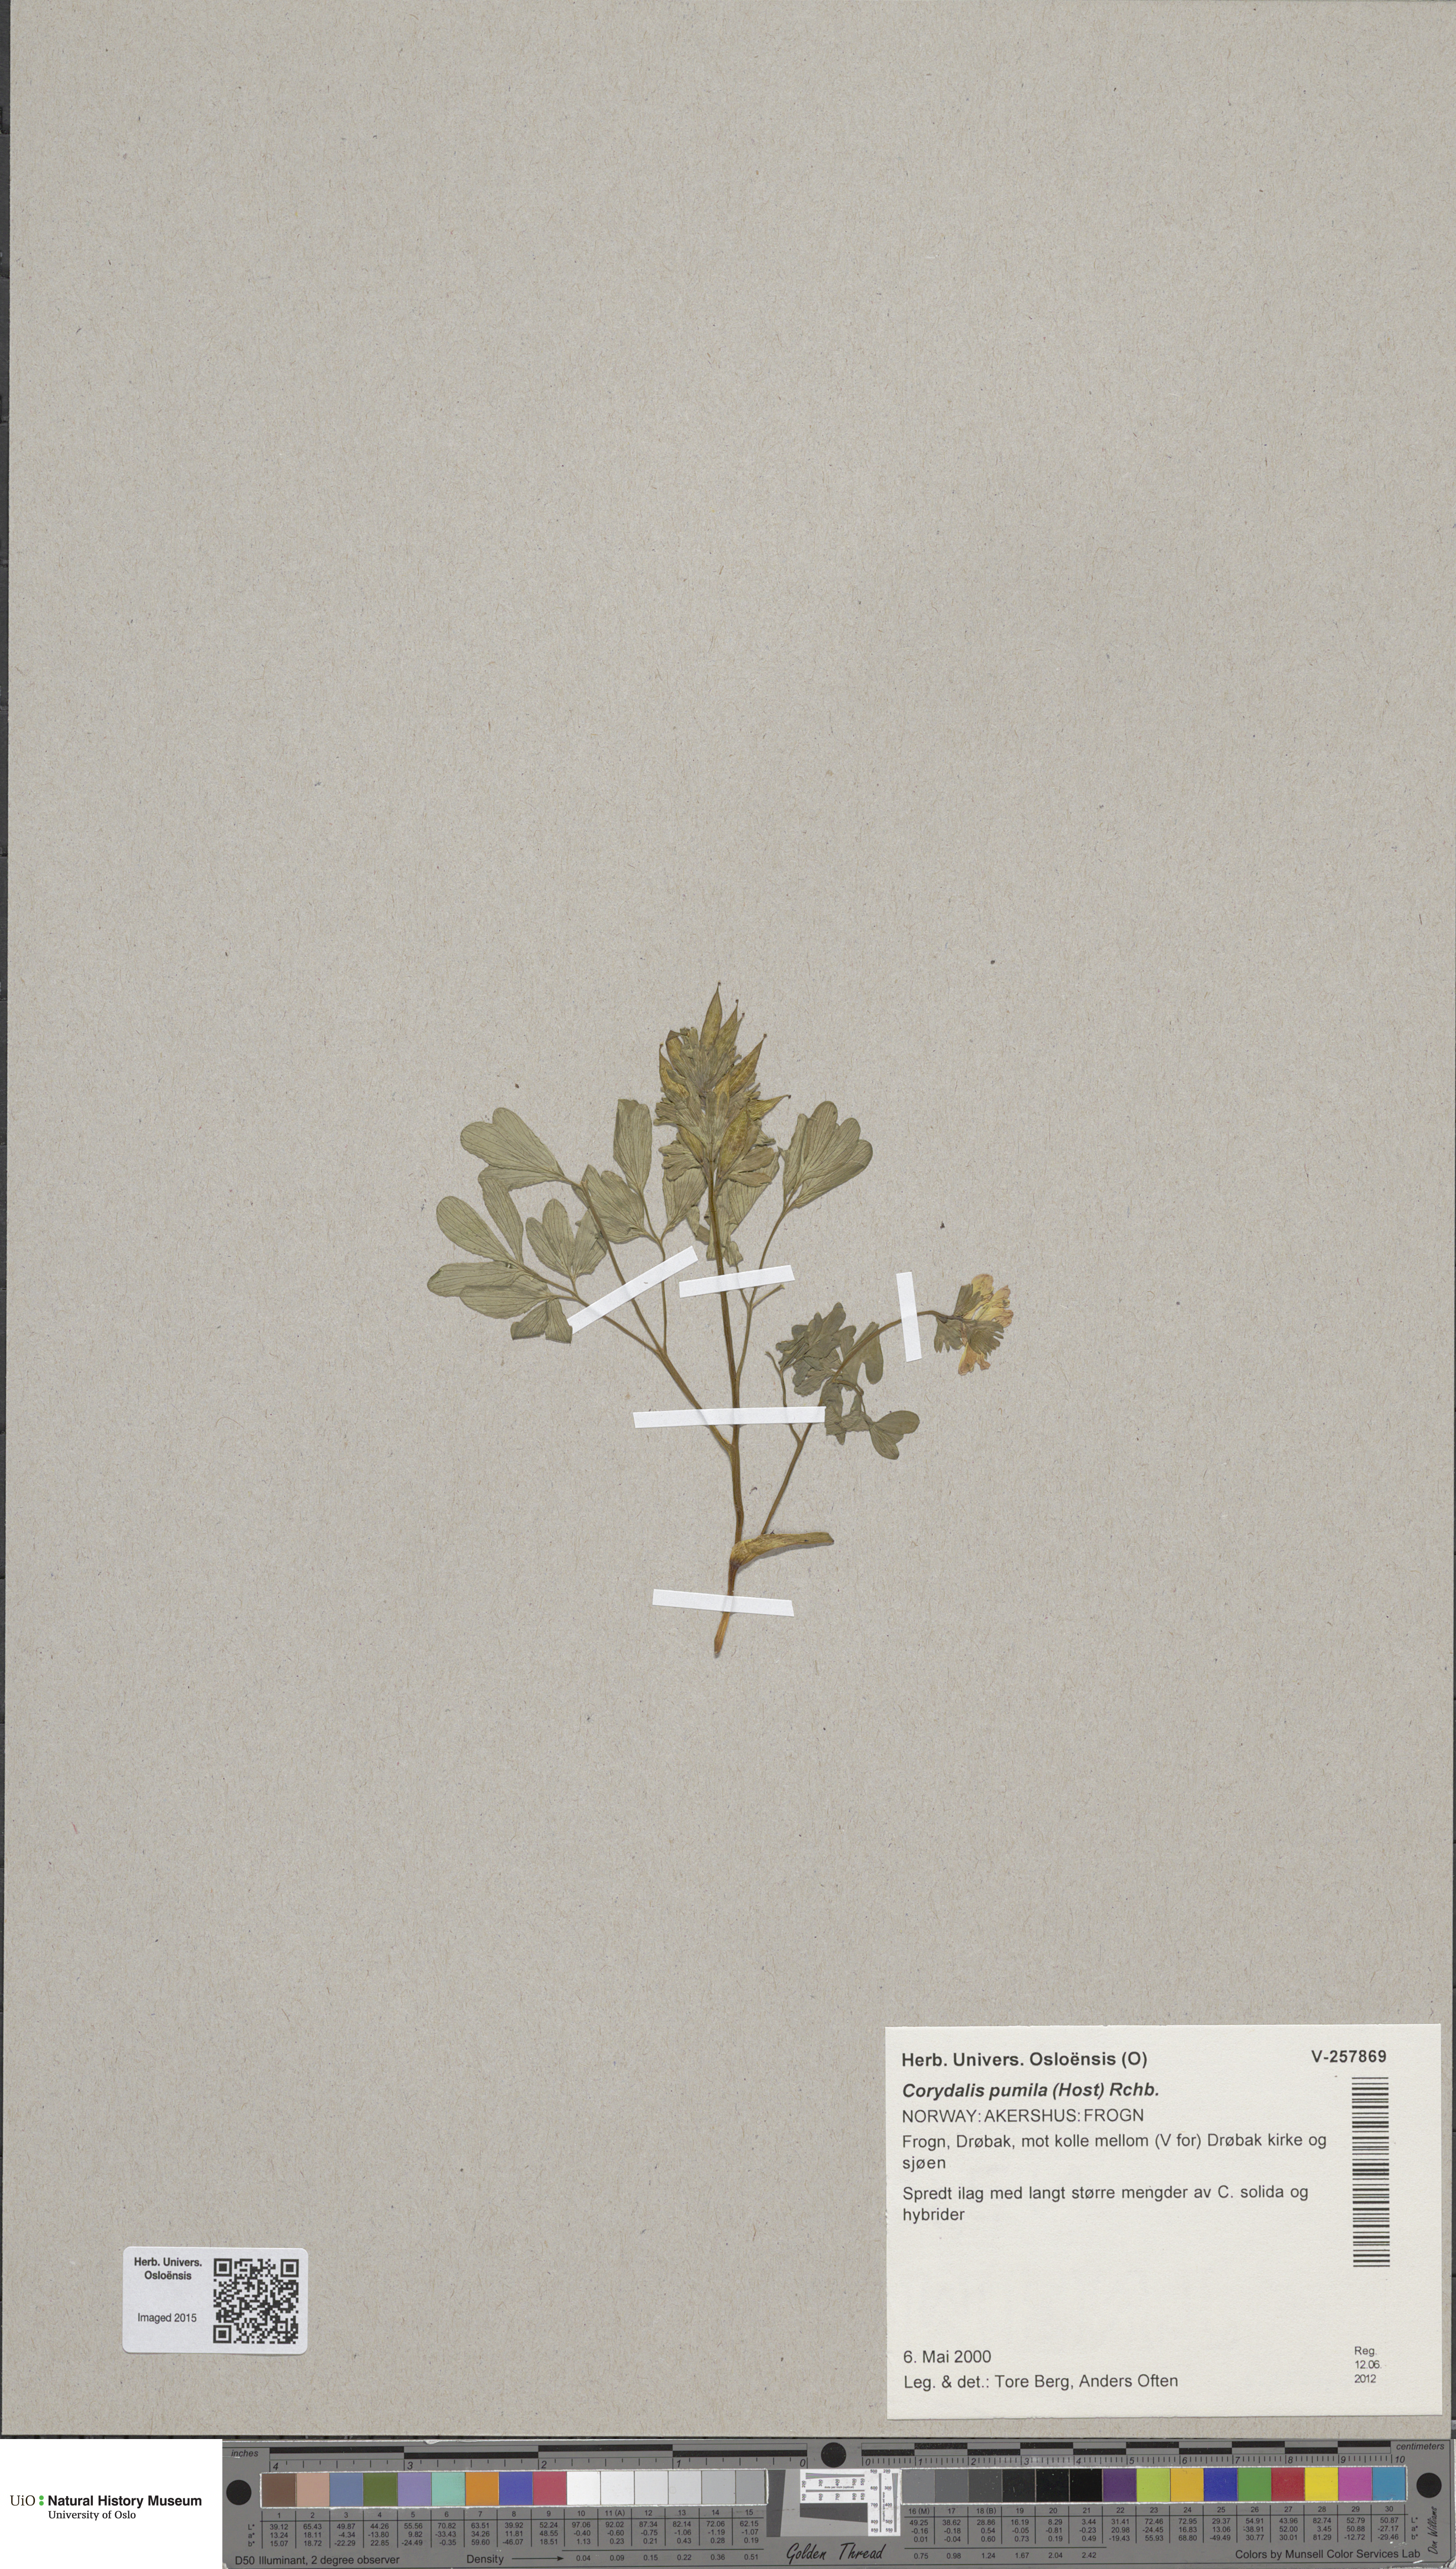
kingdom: Plantae
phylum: Tracheophyta
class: Magnoliopsida
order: Ranunculales
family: Papaveraceae
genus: Corydalis
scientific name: Corydalis pumila
